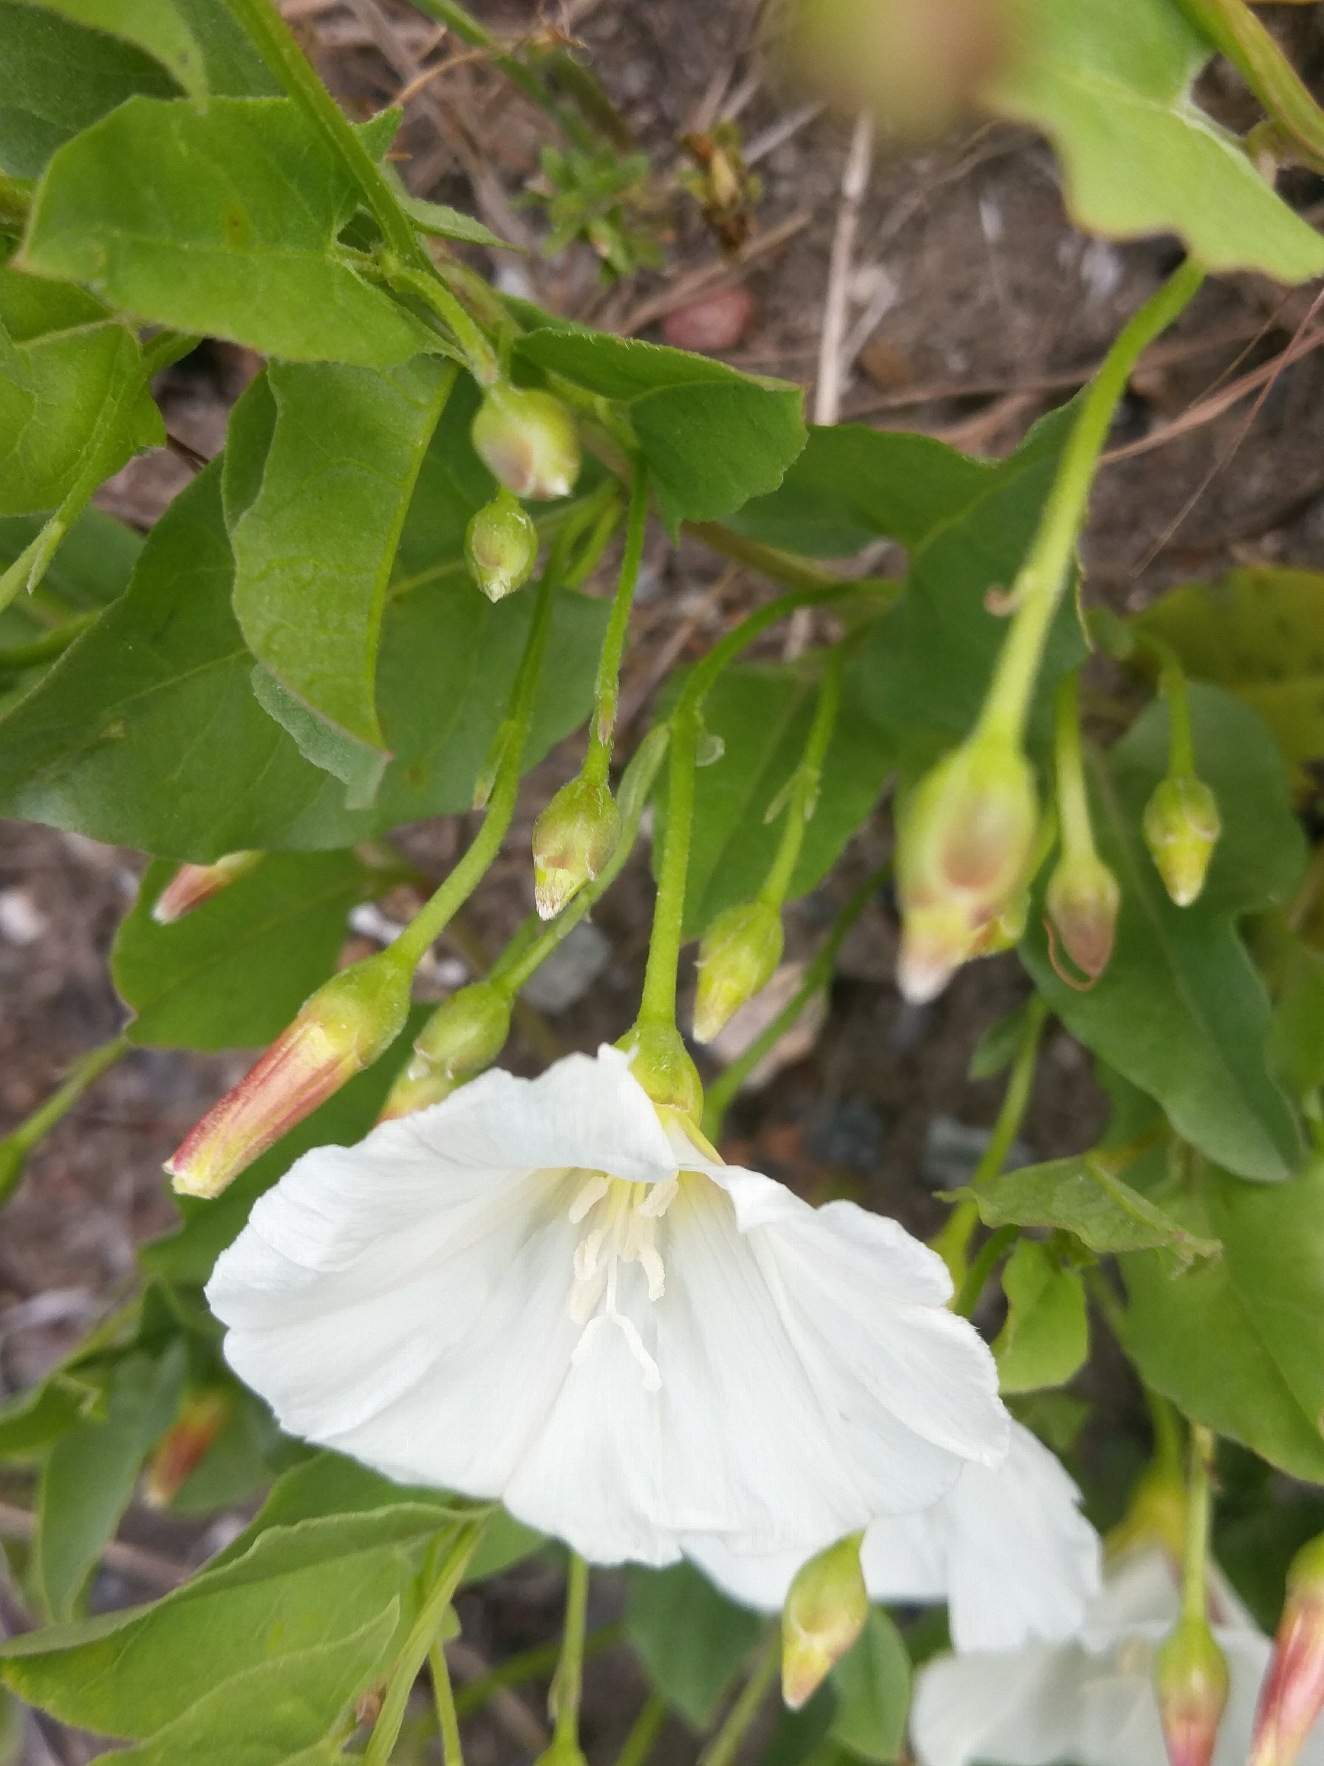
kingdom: Plantae
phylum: Tracheophyta
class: Magnoliopsida
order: Solanales
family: Convolvulaceae
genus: Convolvulus
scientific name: Convolvulus arvensis
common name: Ager-snerle
